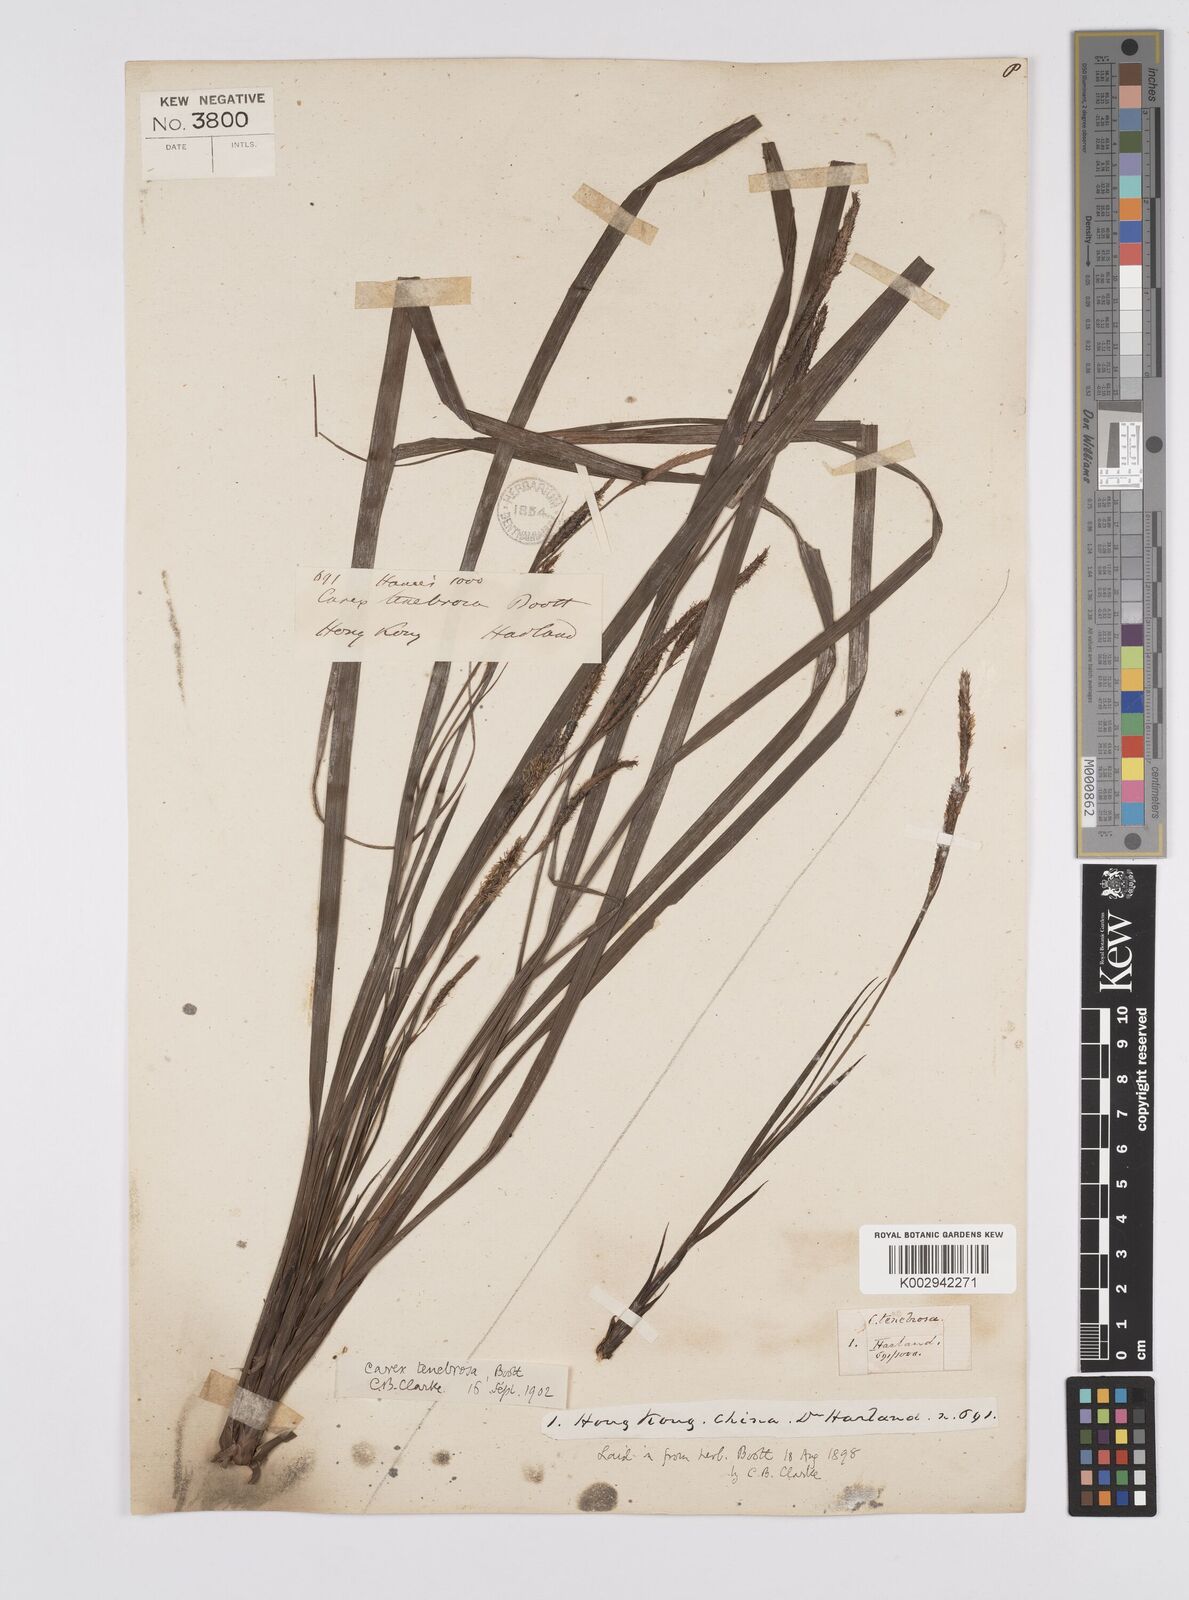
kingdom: Plantae
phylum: Tracheophyta
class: Liliopsida
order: Poales
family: Cyperaceae
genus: Carex
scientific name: Carex tenebrosa
